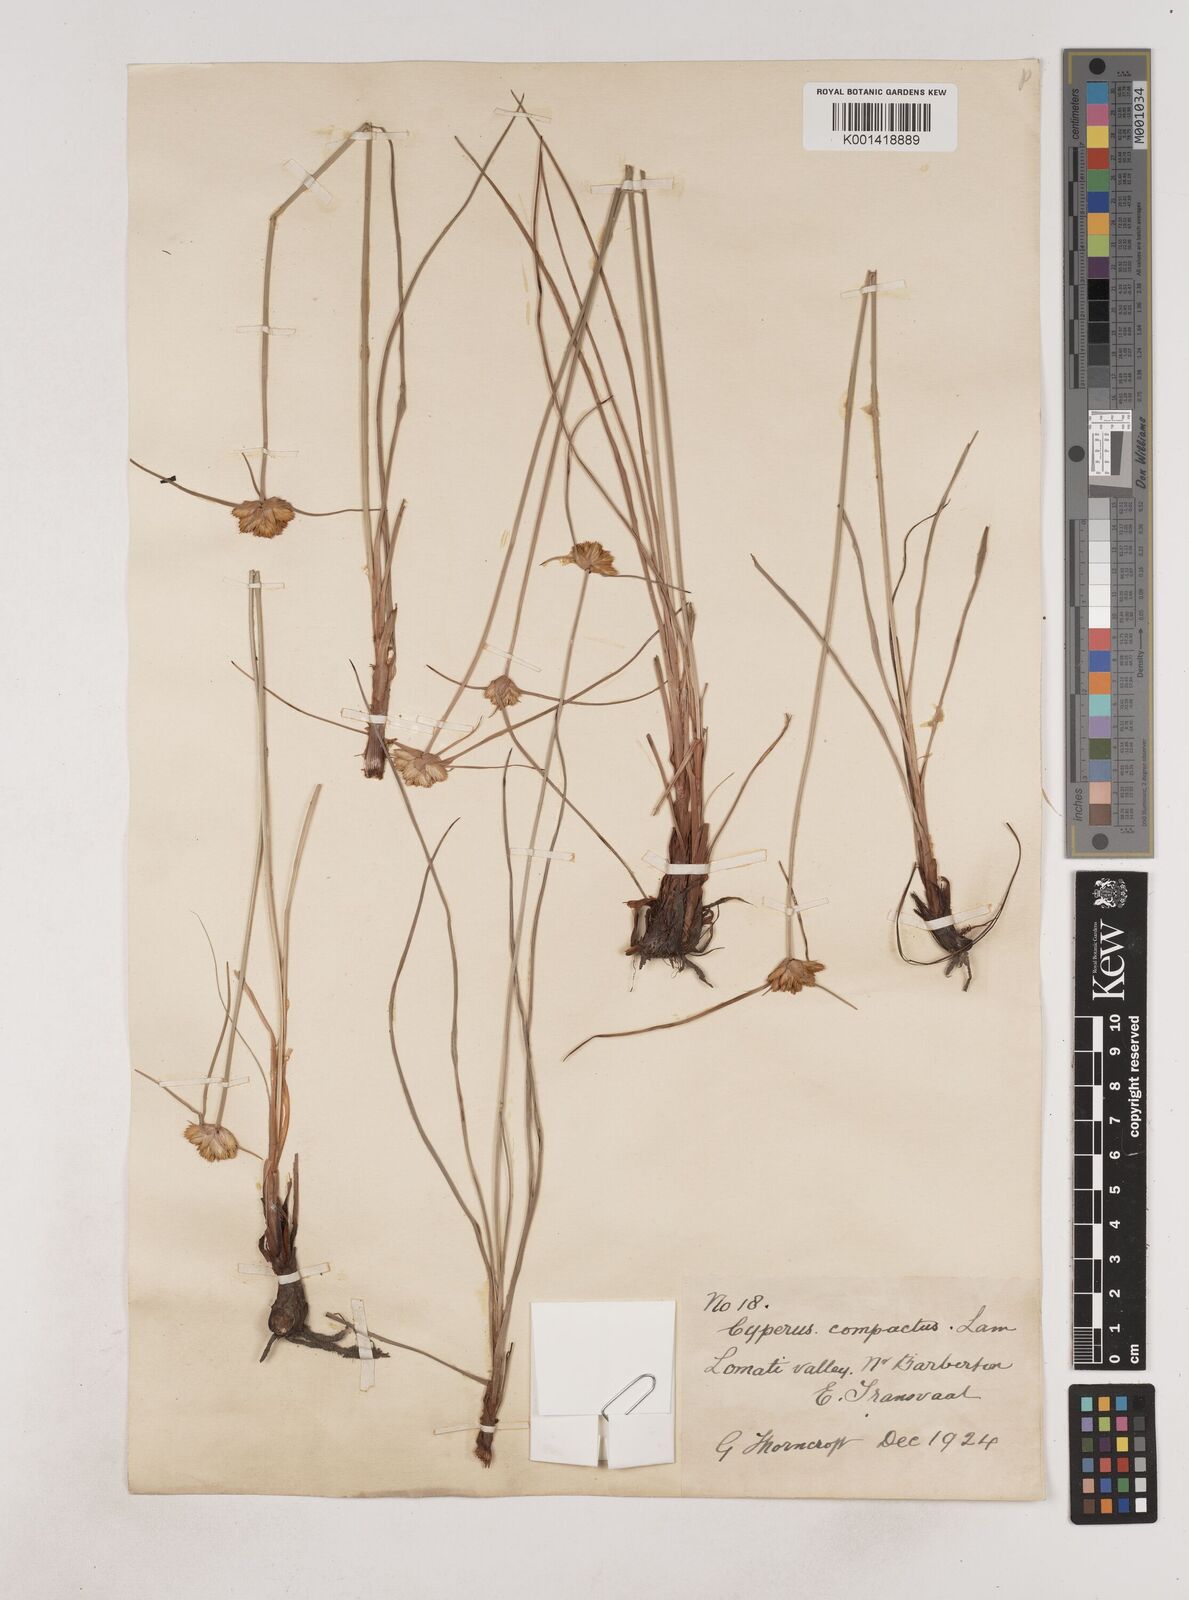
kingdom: Plantae
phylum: Tracheophyta
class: Liliopsida
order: Poales
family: Cyperaceae
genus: Cyperus
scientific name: Cyperus sphaerocephalus
